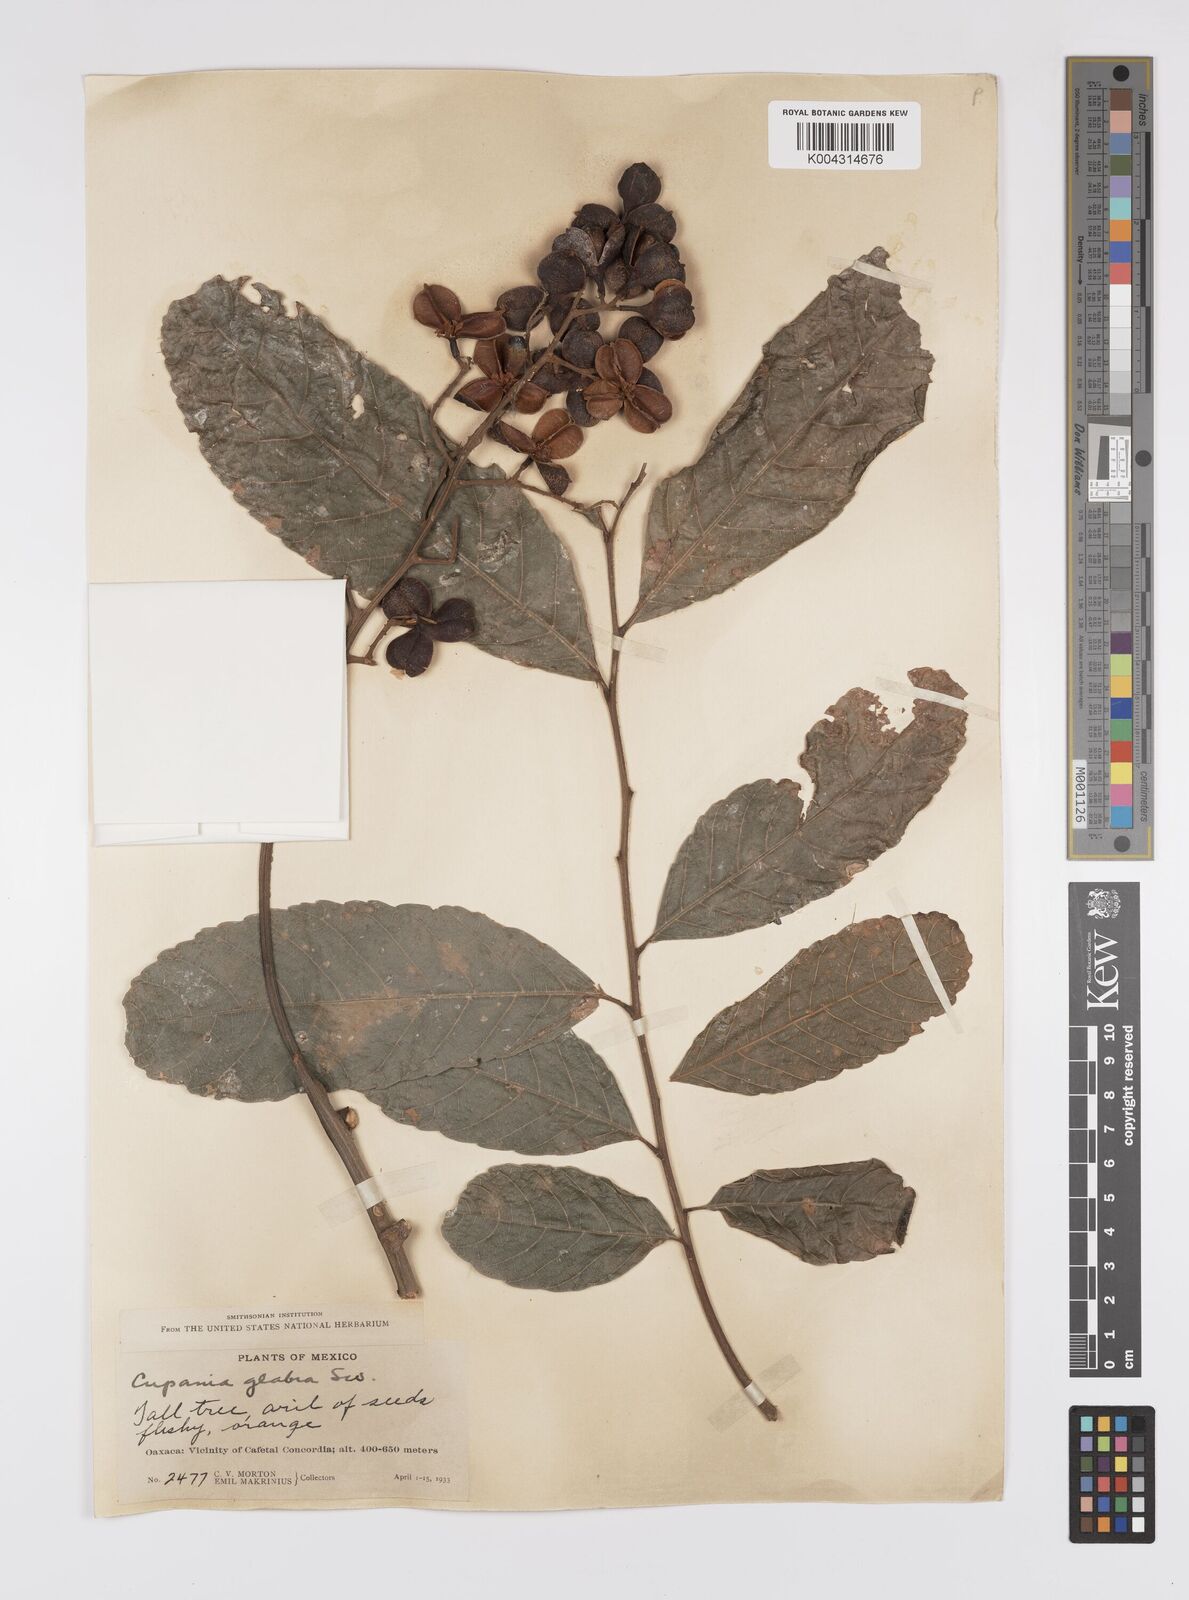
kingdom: Plantae
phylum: Tracheophyta
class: Magnoliopsida
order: Sapindales
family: Sapindaceae
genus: Cupania
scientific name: Cupania
